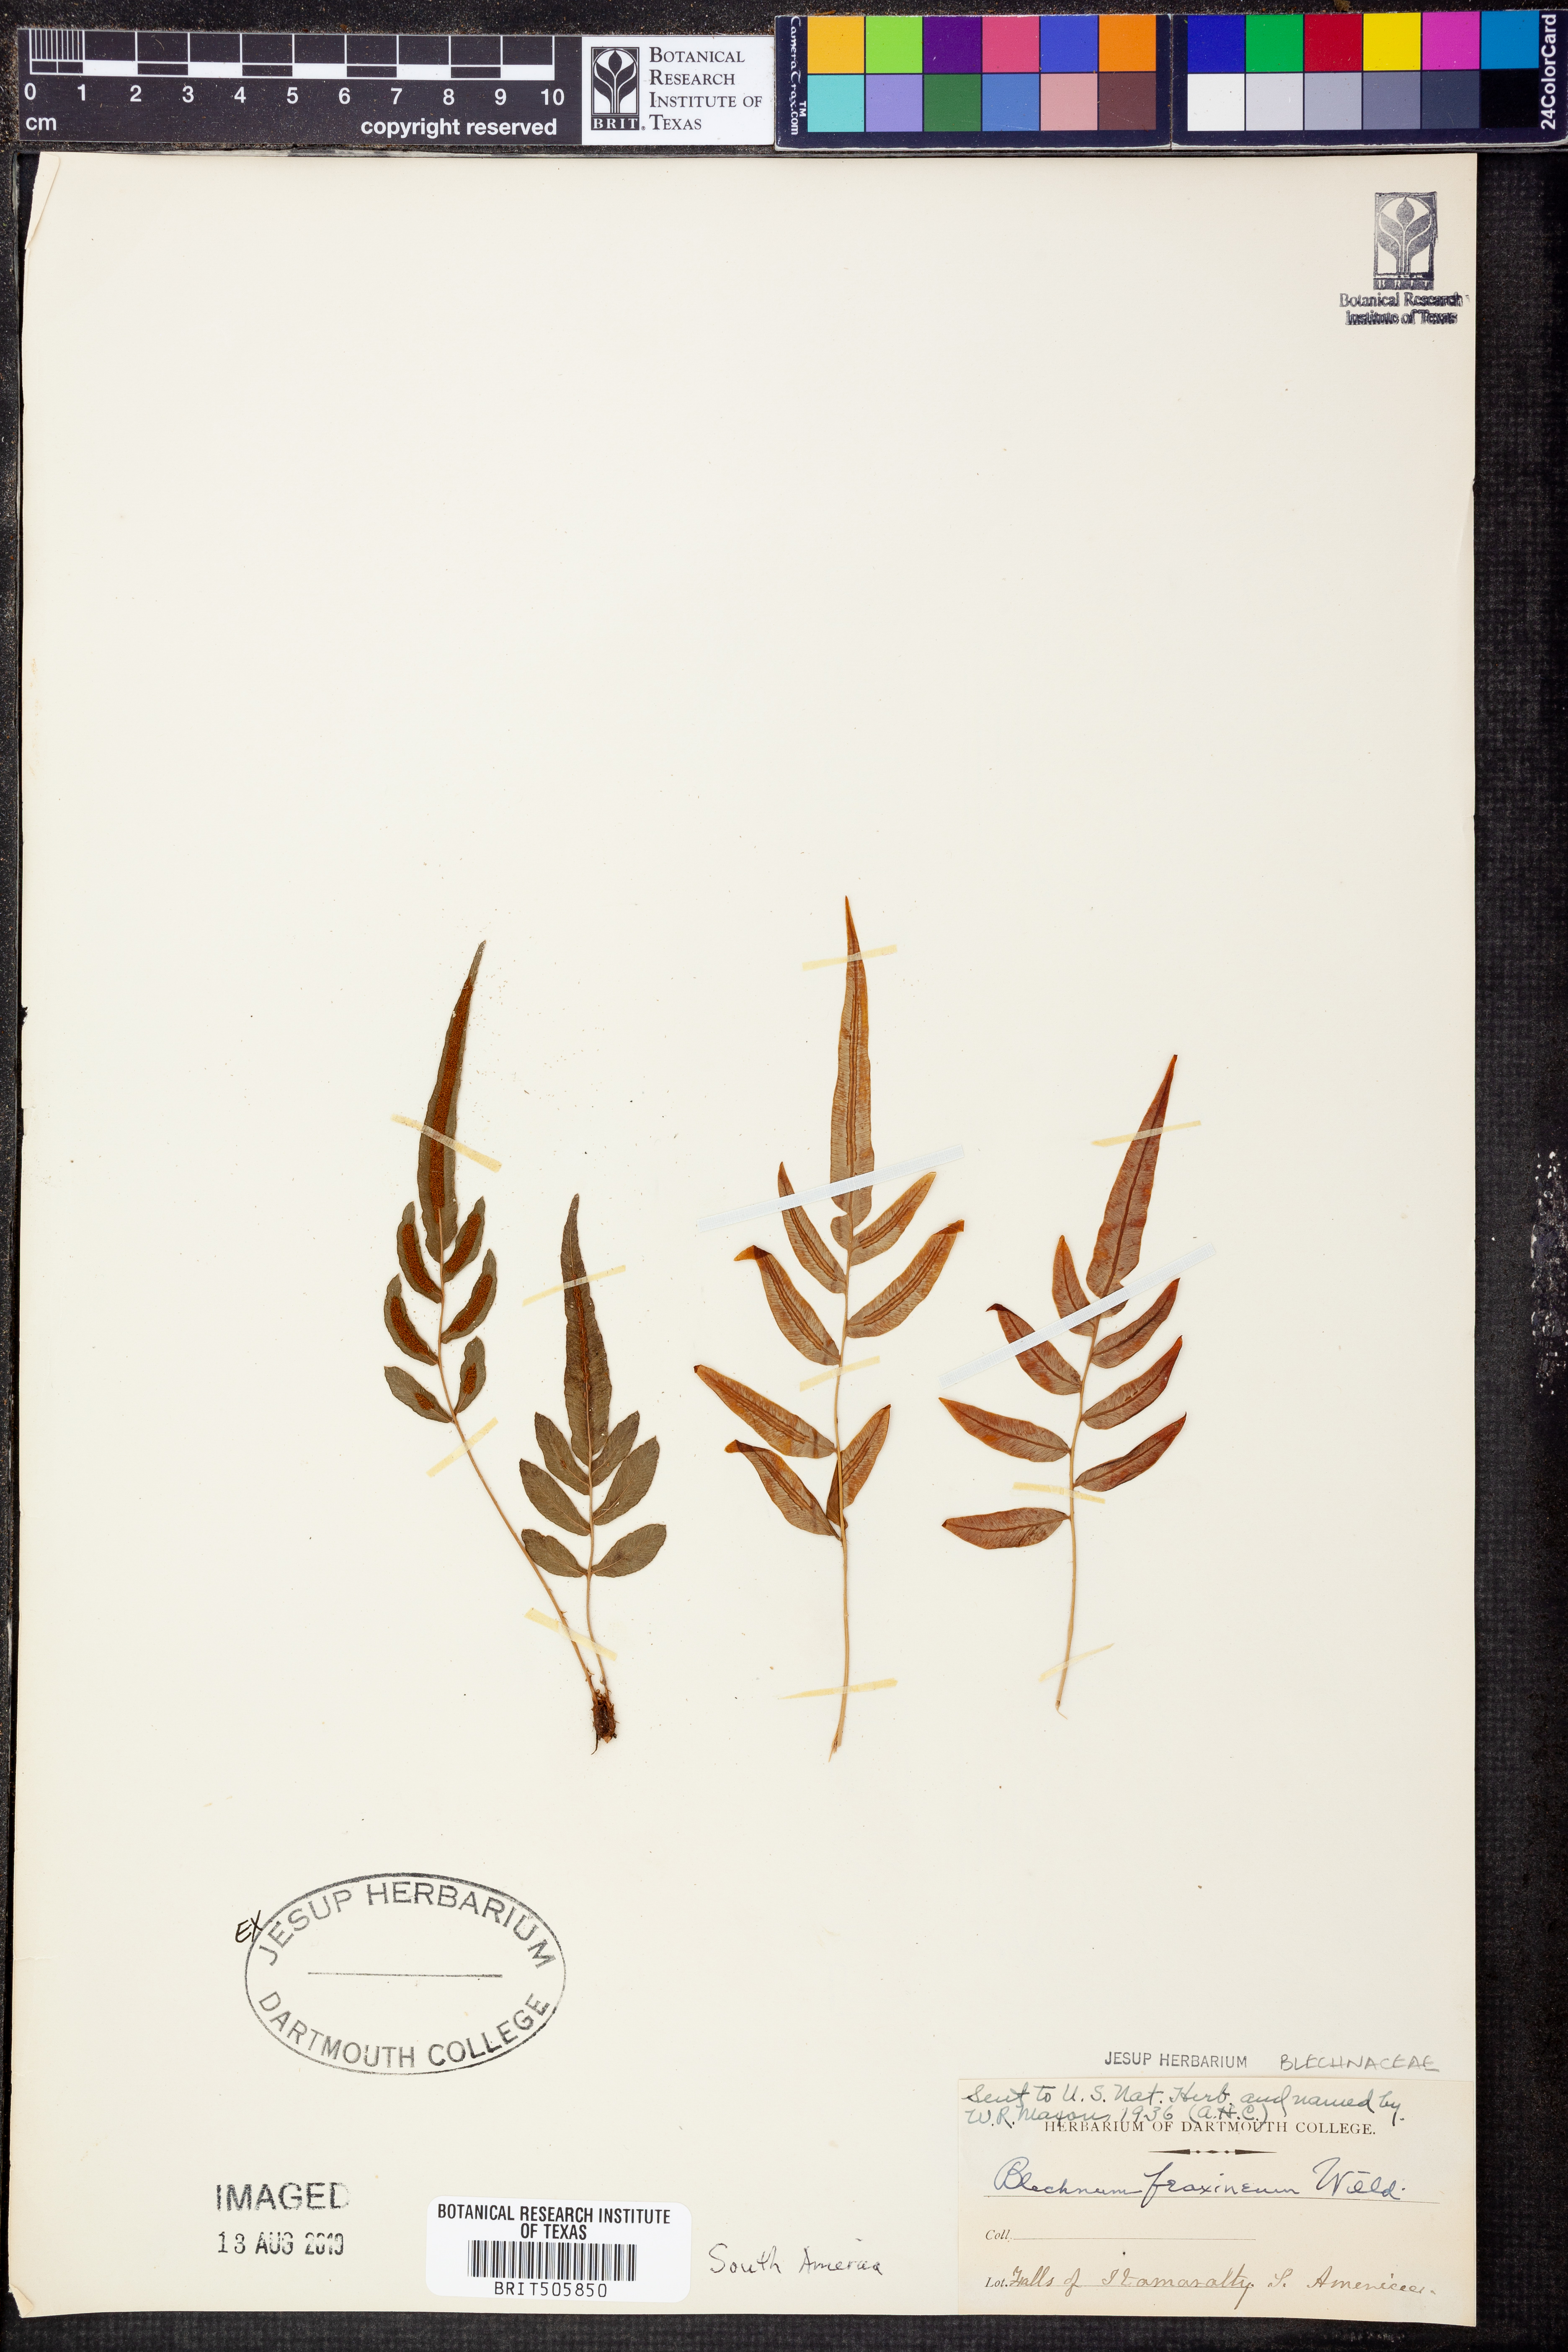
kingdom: Plantae
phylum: Tracheophyta
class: Polypodiopsida
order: Polypodiales
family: Blechnaceae
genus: Blechnum
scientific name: Blechnum gracile
